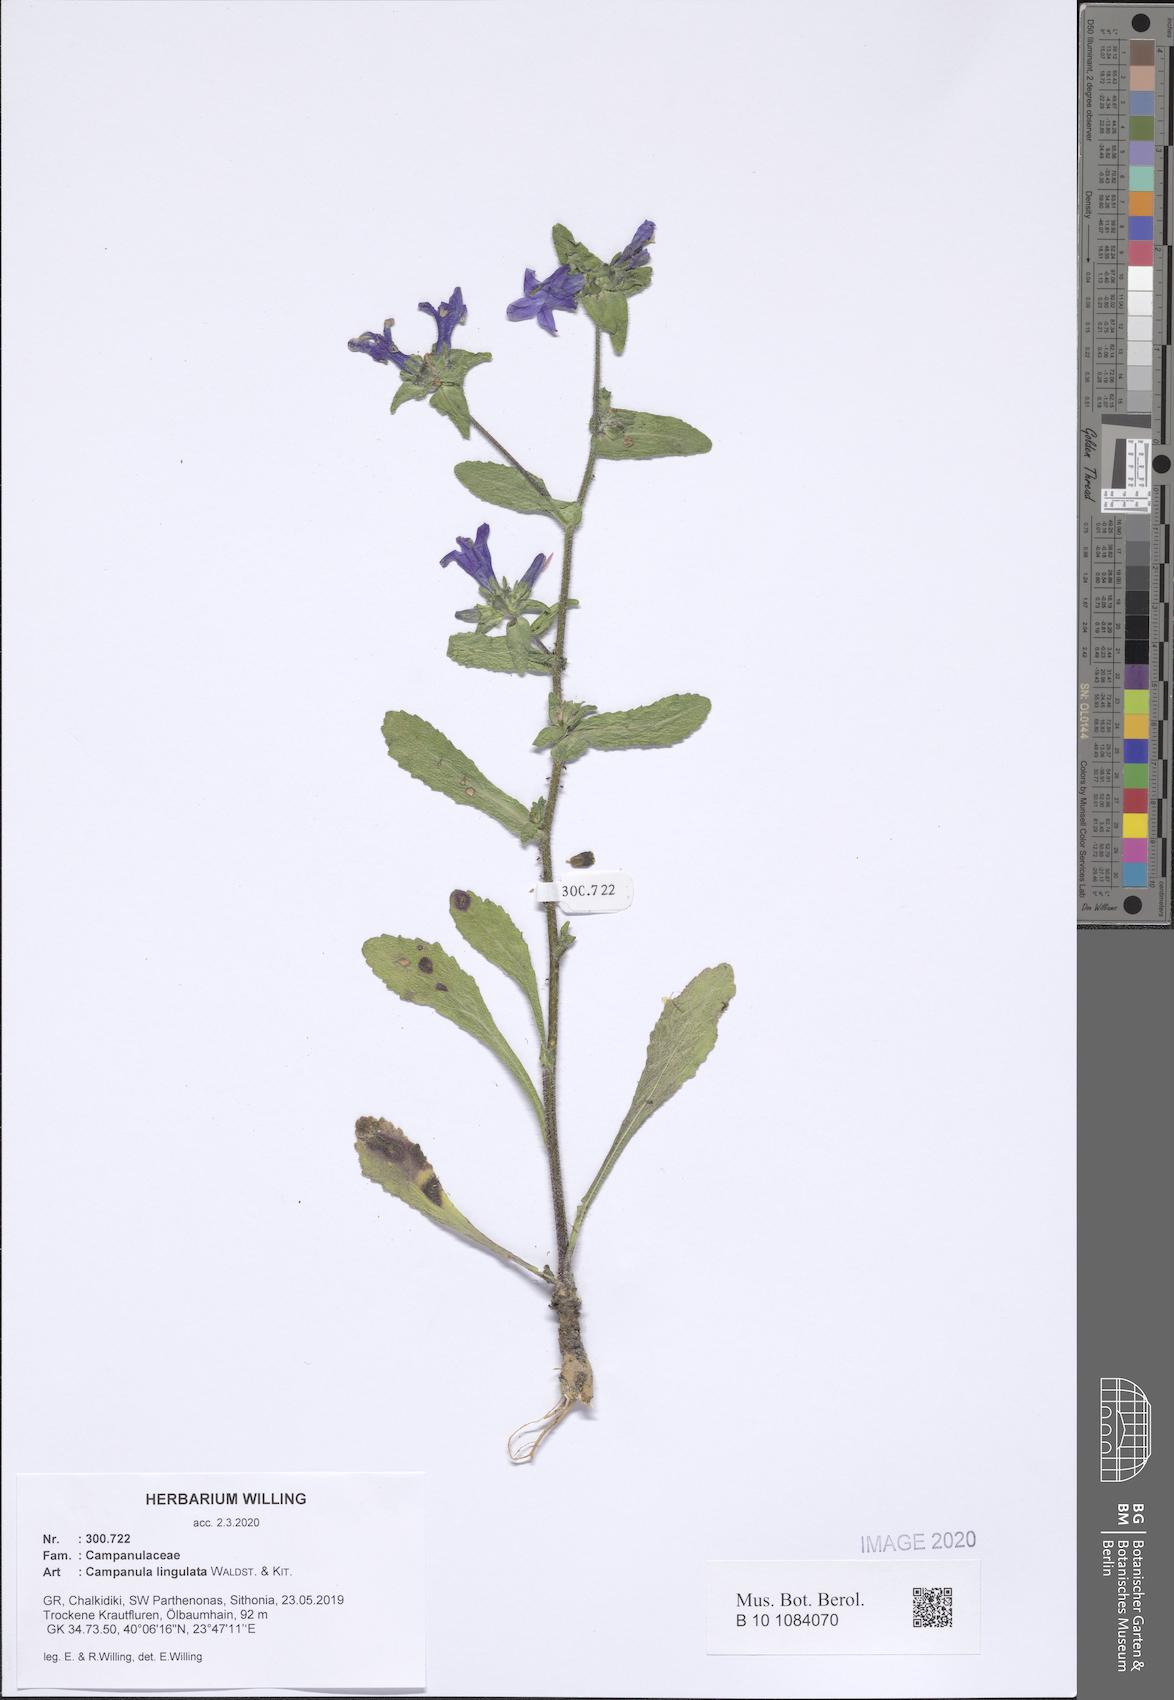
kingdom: Plantae
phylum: Tracheophyta
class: Magnoliopsida
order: Asterales
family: Campanulaceae
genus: Campanula
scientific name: Campanula lingulata
